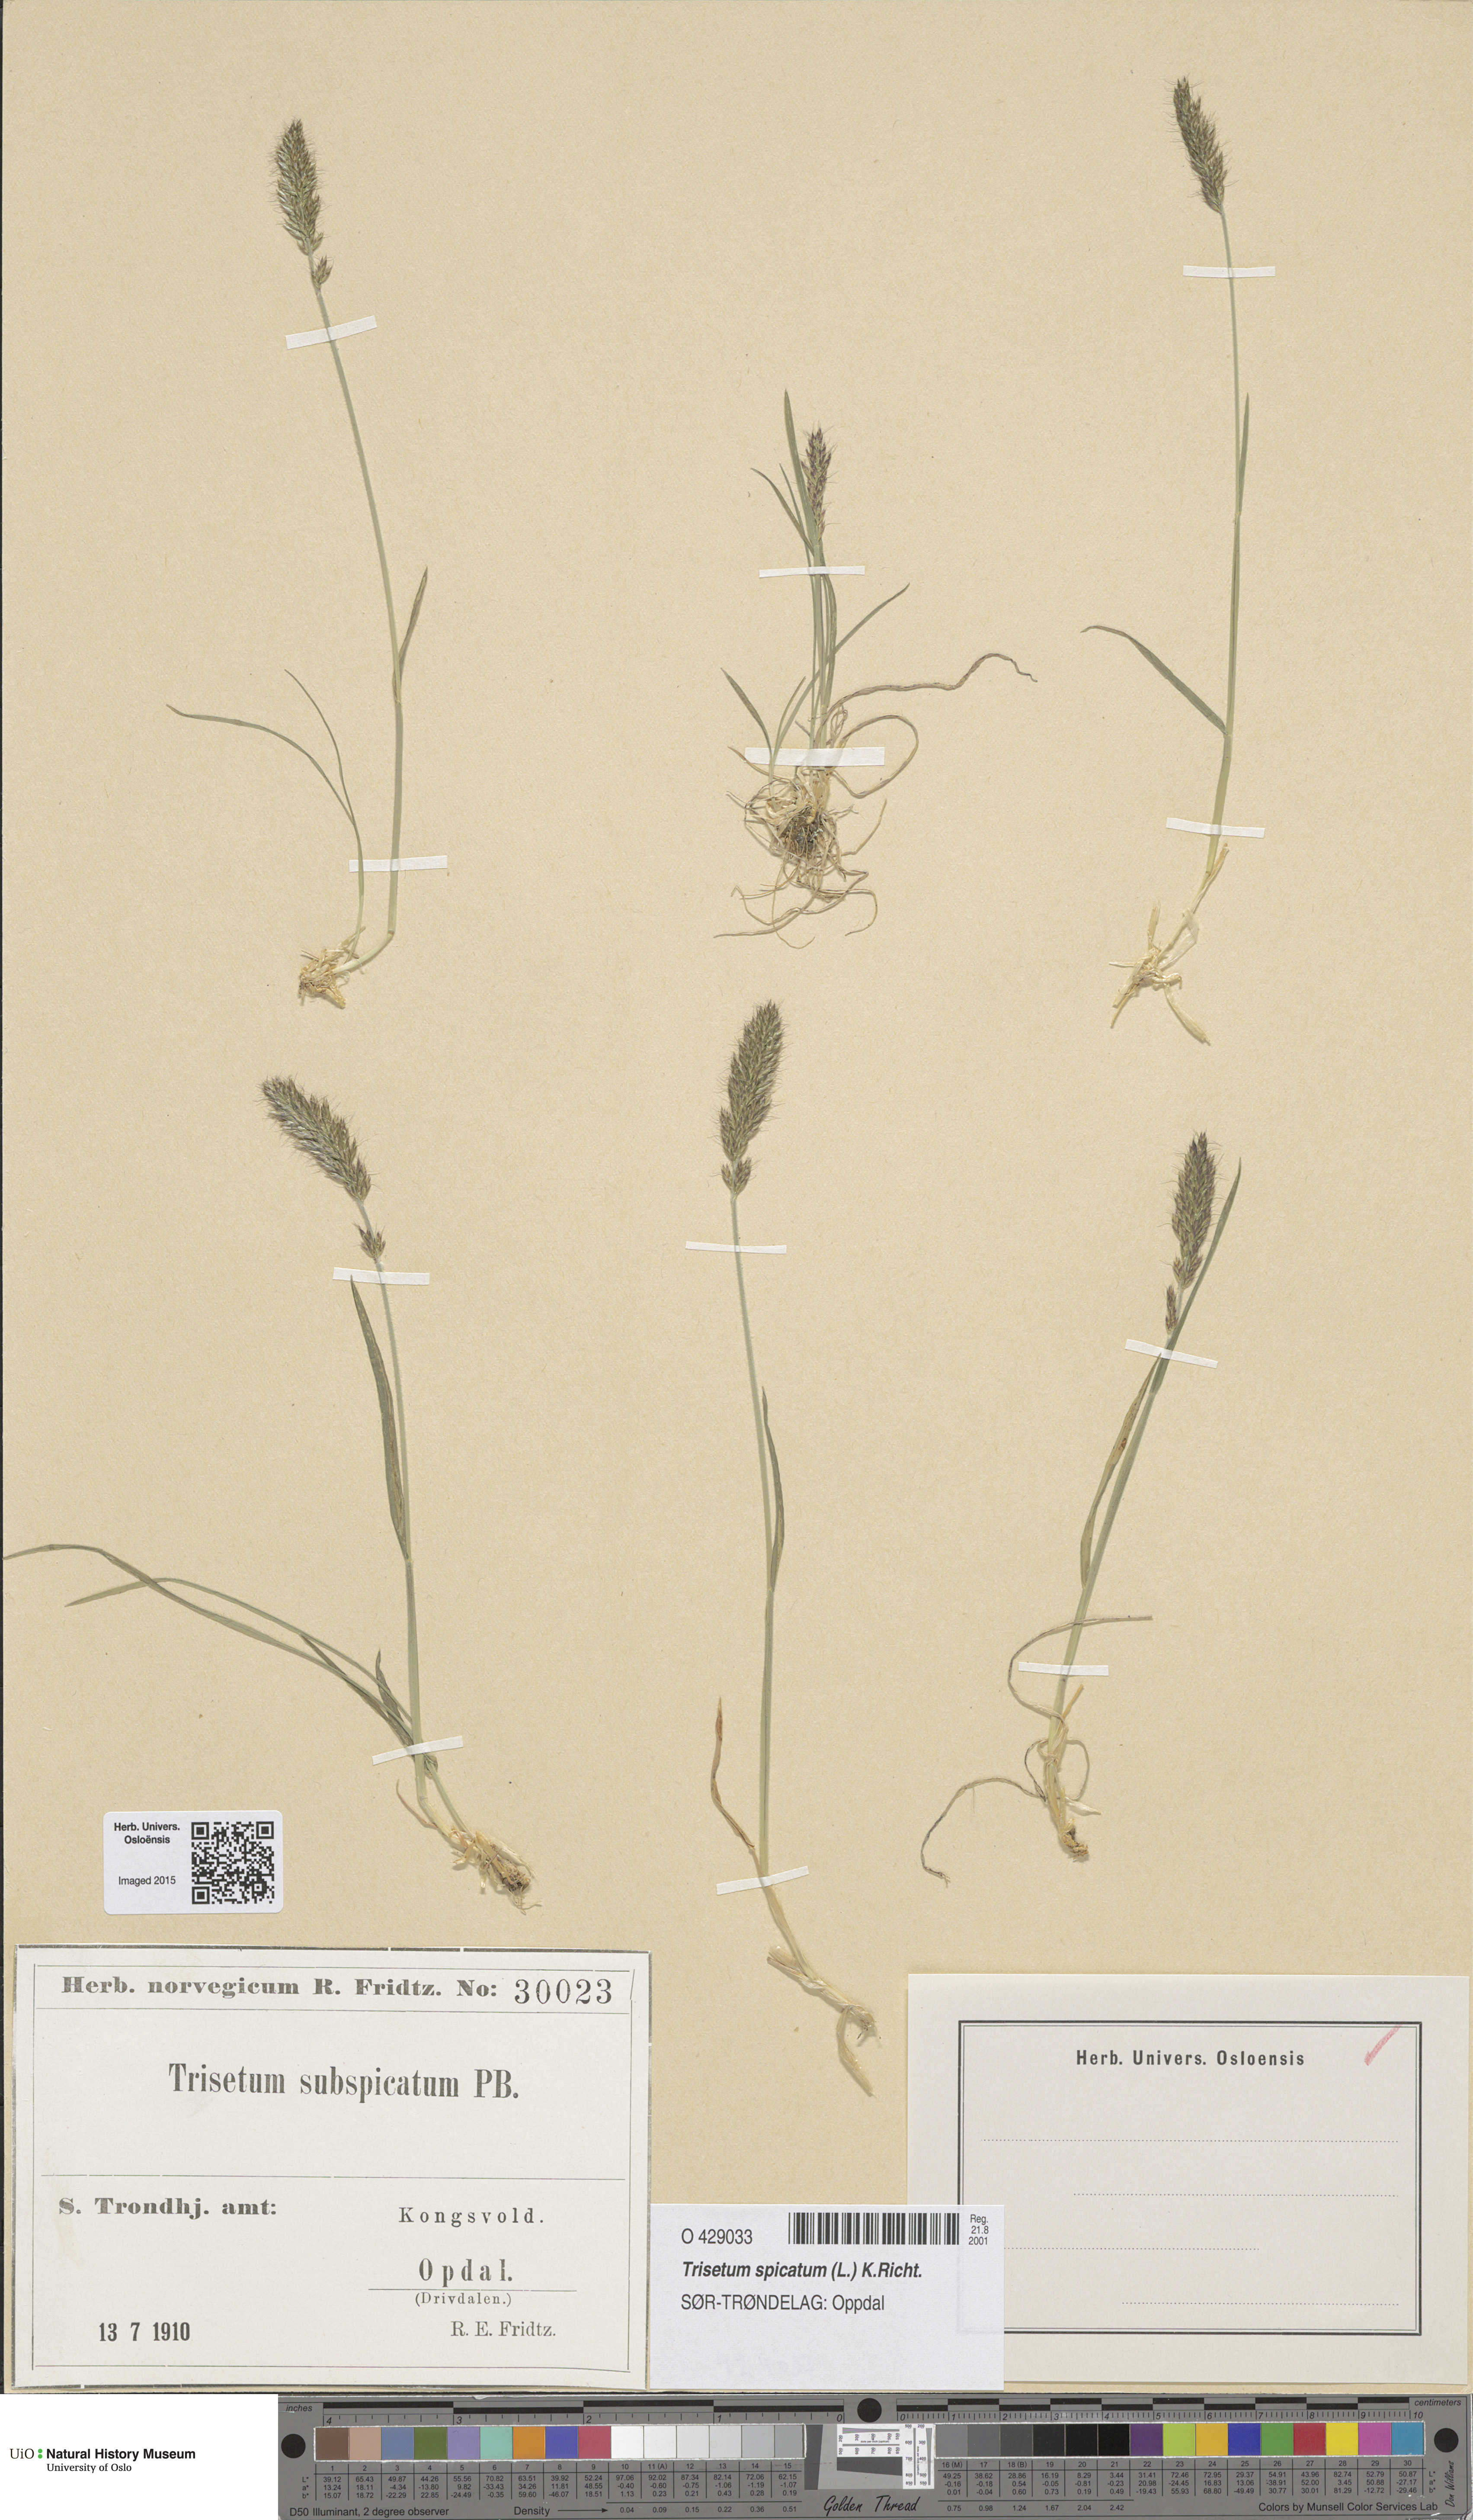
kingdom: Plantae
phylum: Tracheophyta
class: Liliopsida
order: Poales
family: Poaceae
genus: Koeleria
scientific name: Koeleria spicata
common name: Mountain trisetum
